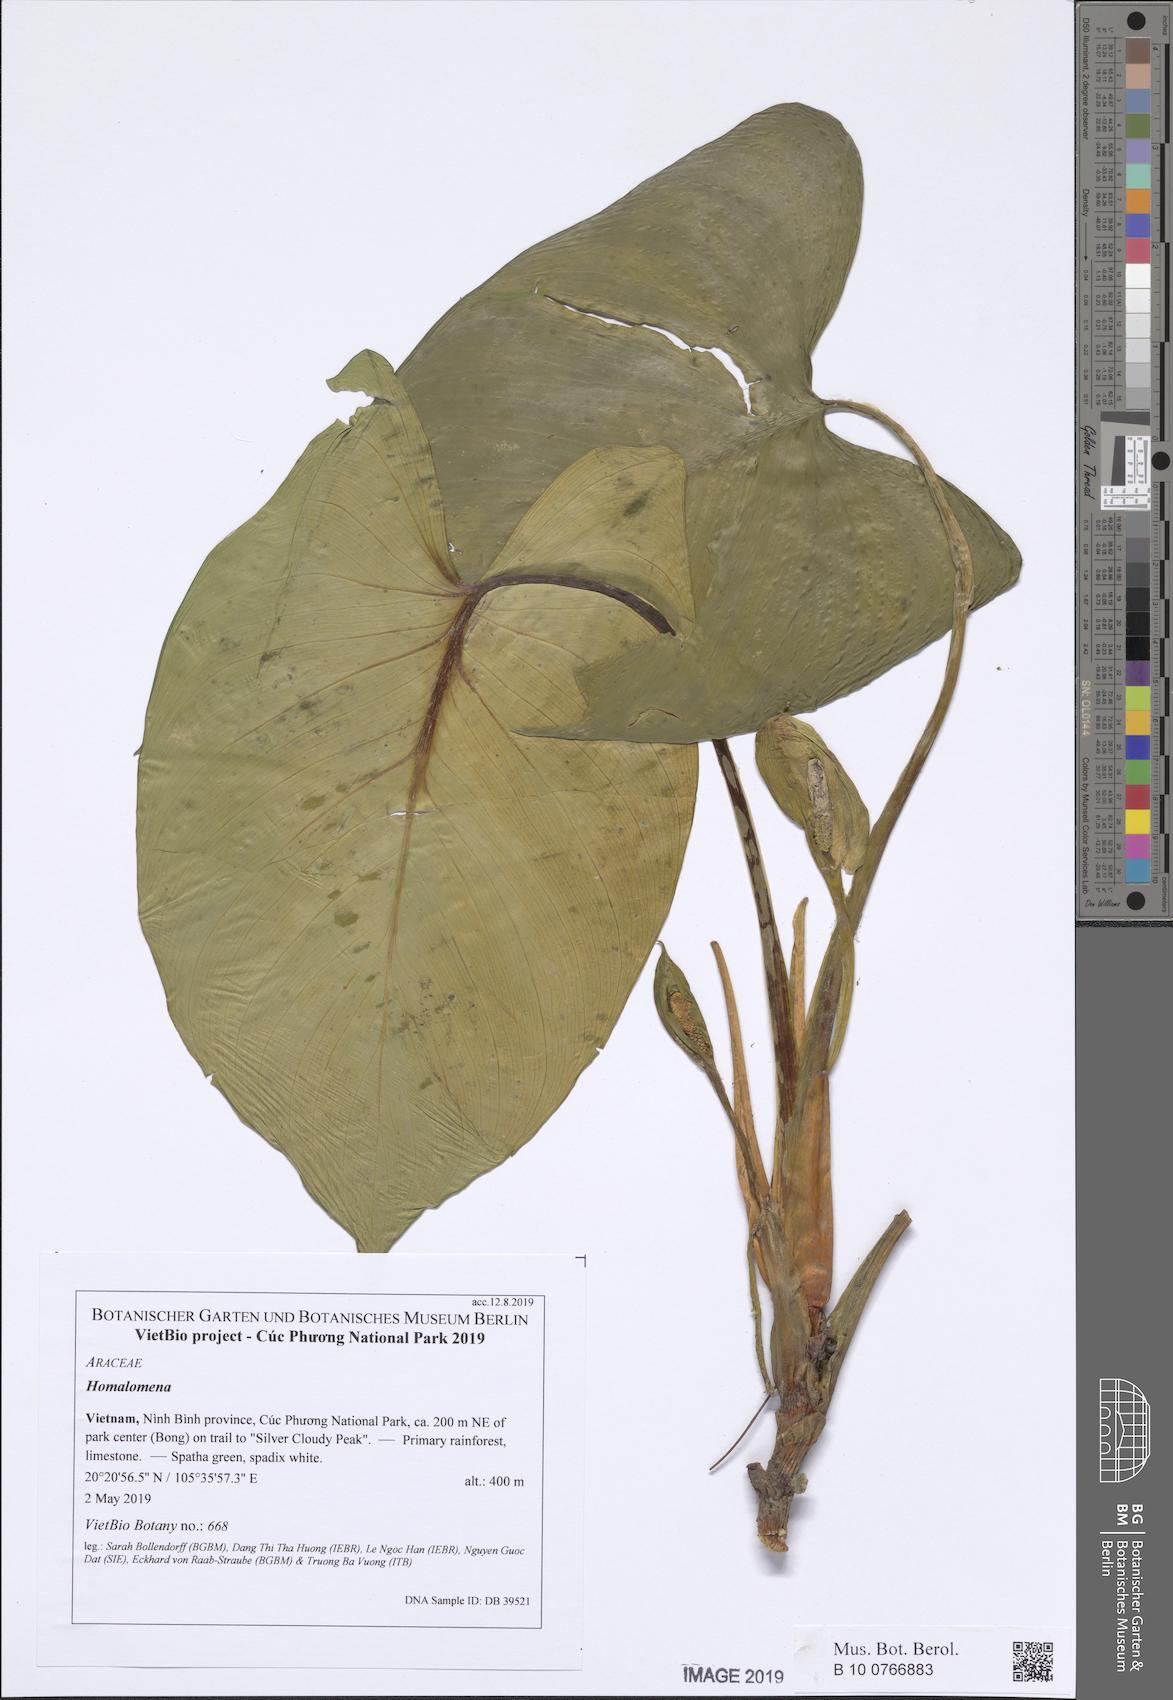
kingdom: Plantae
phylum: Tracheophyta
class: Liliopsida
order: Alismatales
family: Araceae
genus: Homalomena
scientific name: Homalomena occulta
